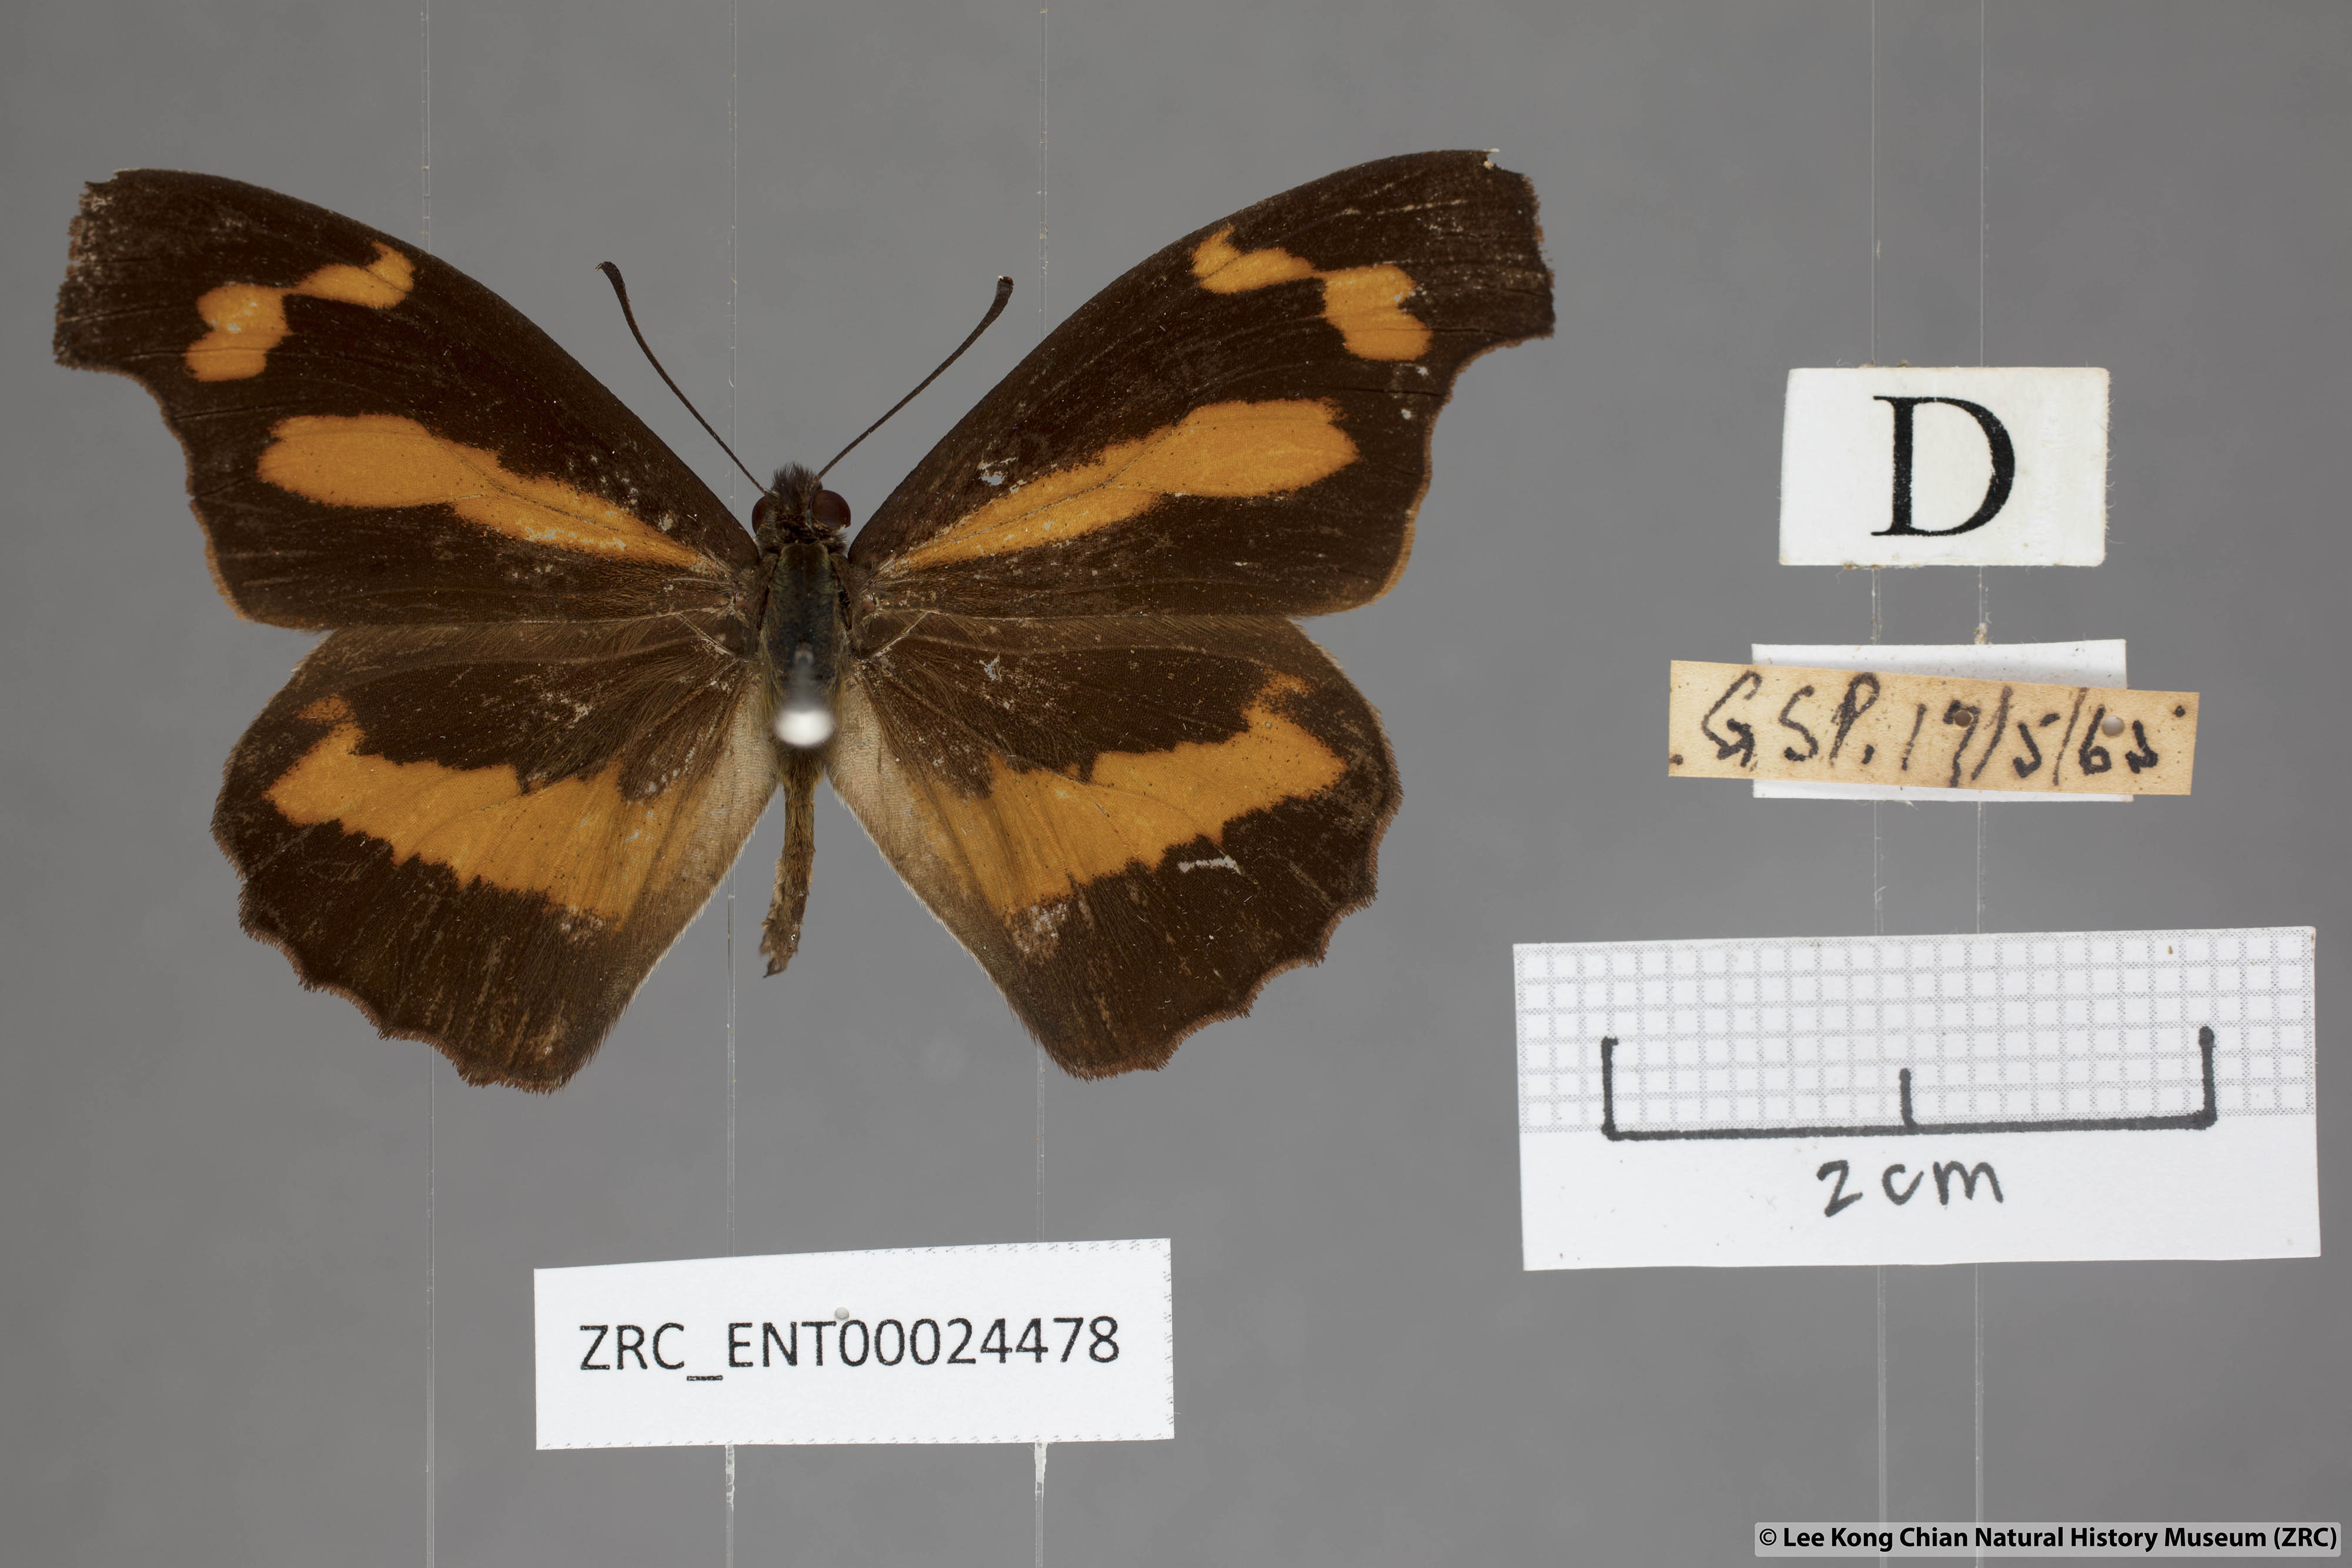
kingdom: Animalia
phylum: Arthropoda
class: Insecta
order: Lepidoptera
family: Nymphalidae
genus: Libythea
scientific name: Libythea myrrha
